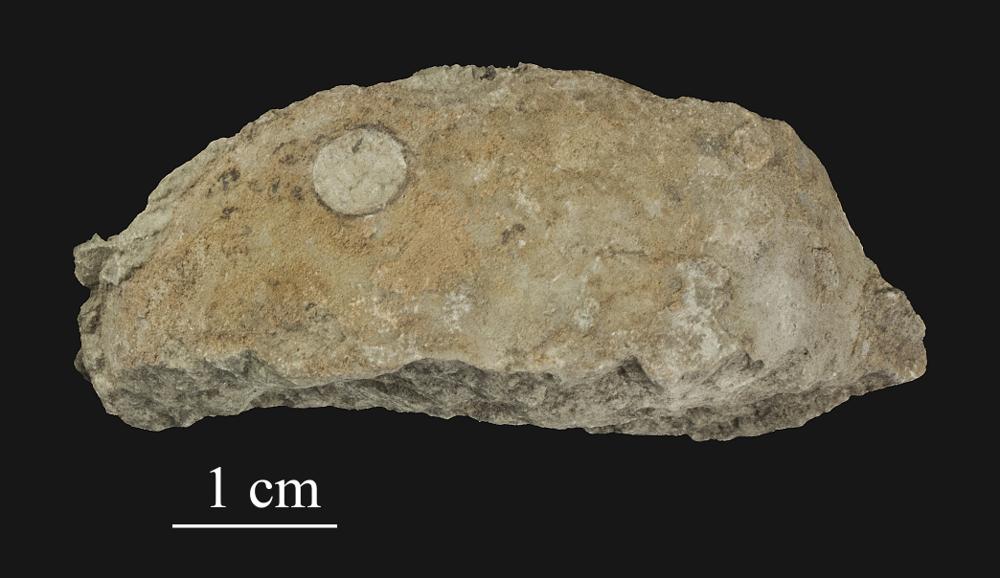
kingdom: Animalia
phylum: Mollusca
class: Cephalopoda
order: Nautilida
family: Nautilidae
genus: Cyrtoceras
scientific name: Cyrtoceras
